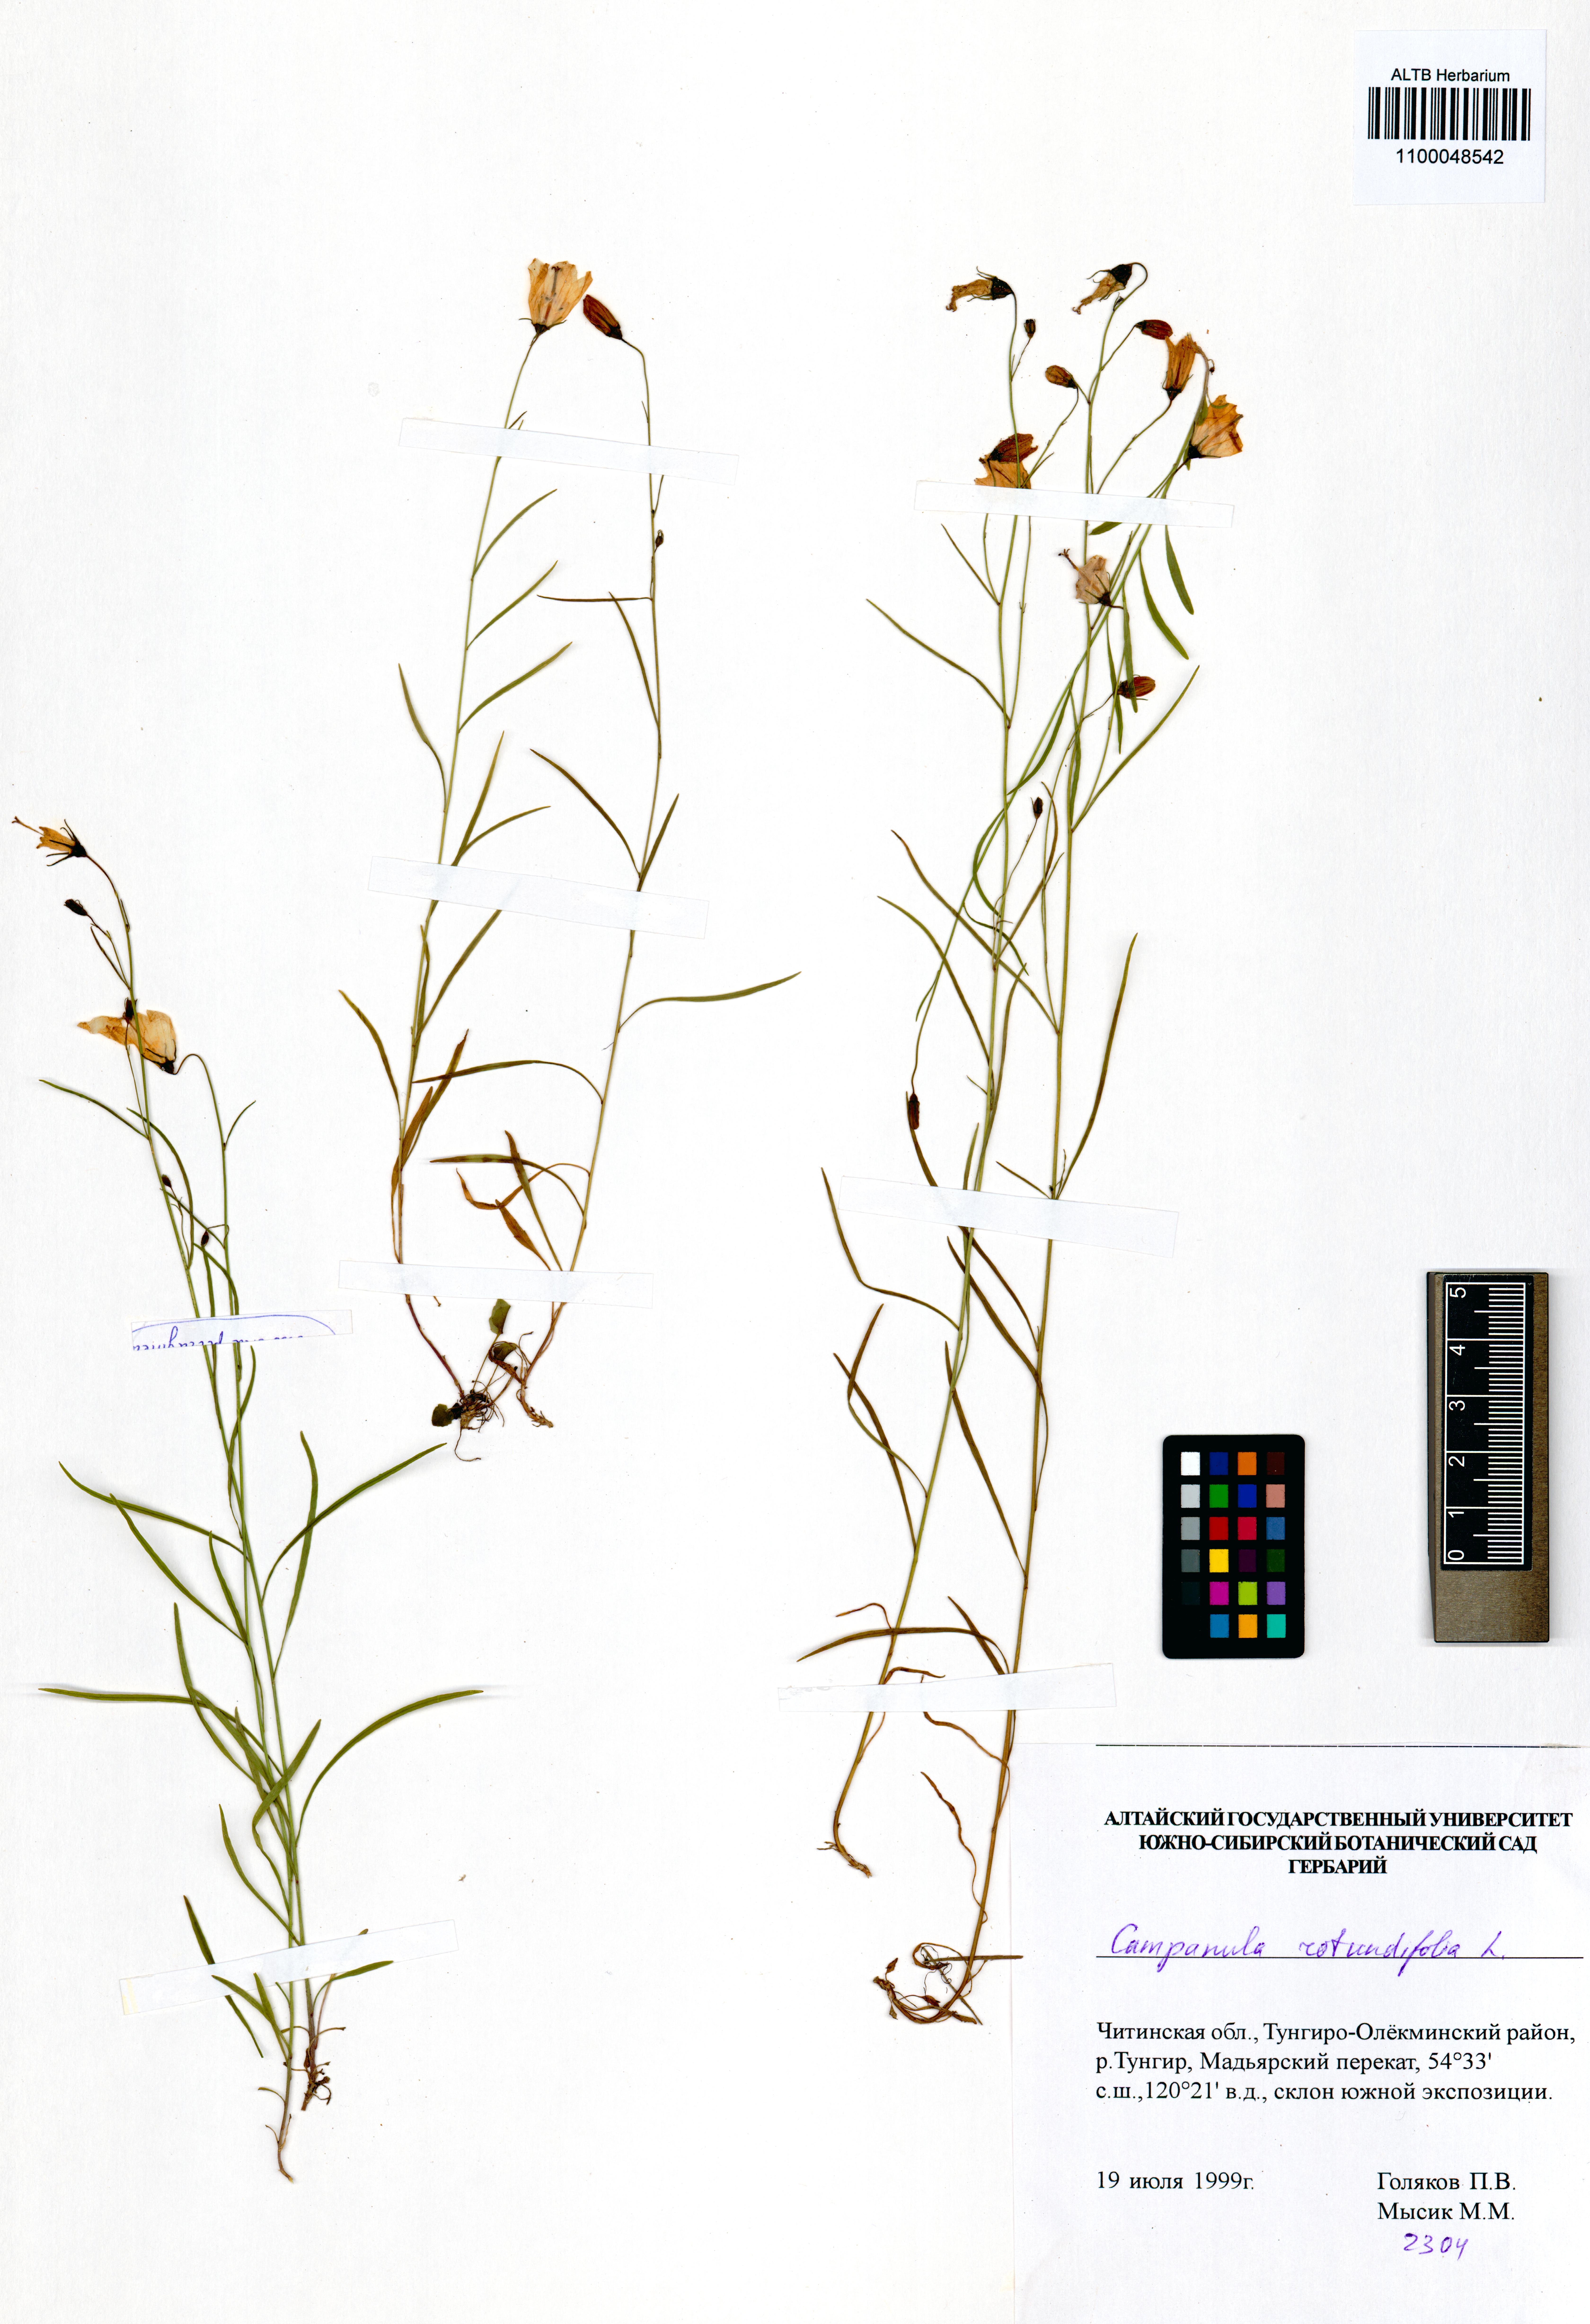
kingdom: Plantae
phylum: Tracheophyta
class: Magnoliopsida
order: Asterales
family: Campanulaceae
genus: Campanula
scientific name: Campanula rotundifolia
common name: Harebell
